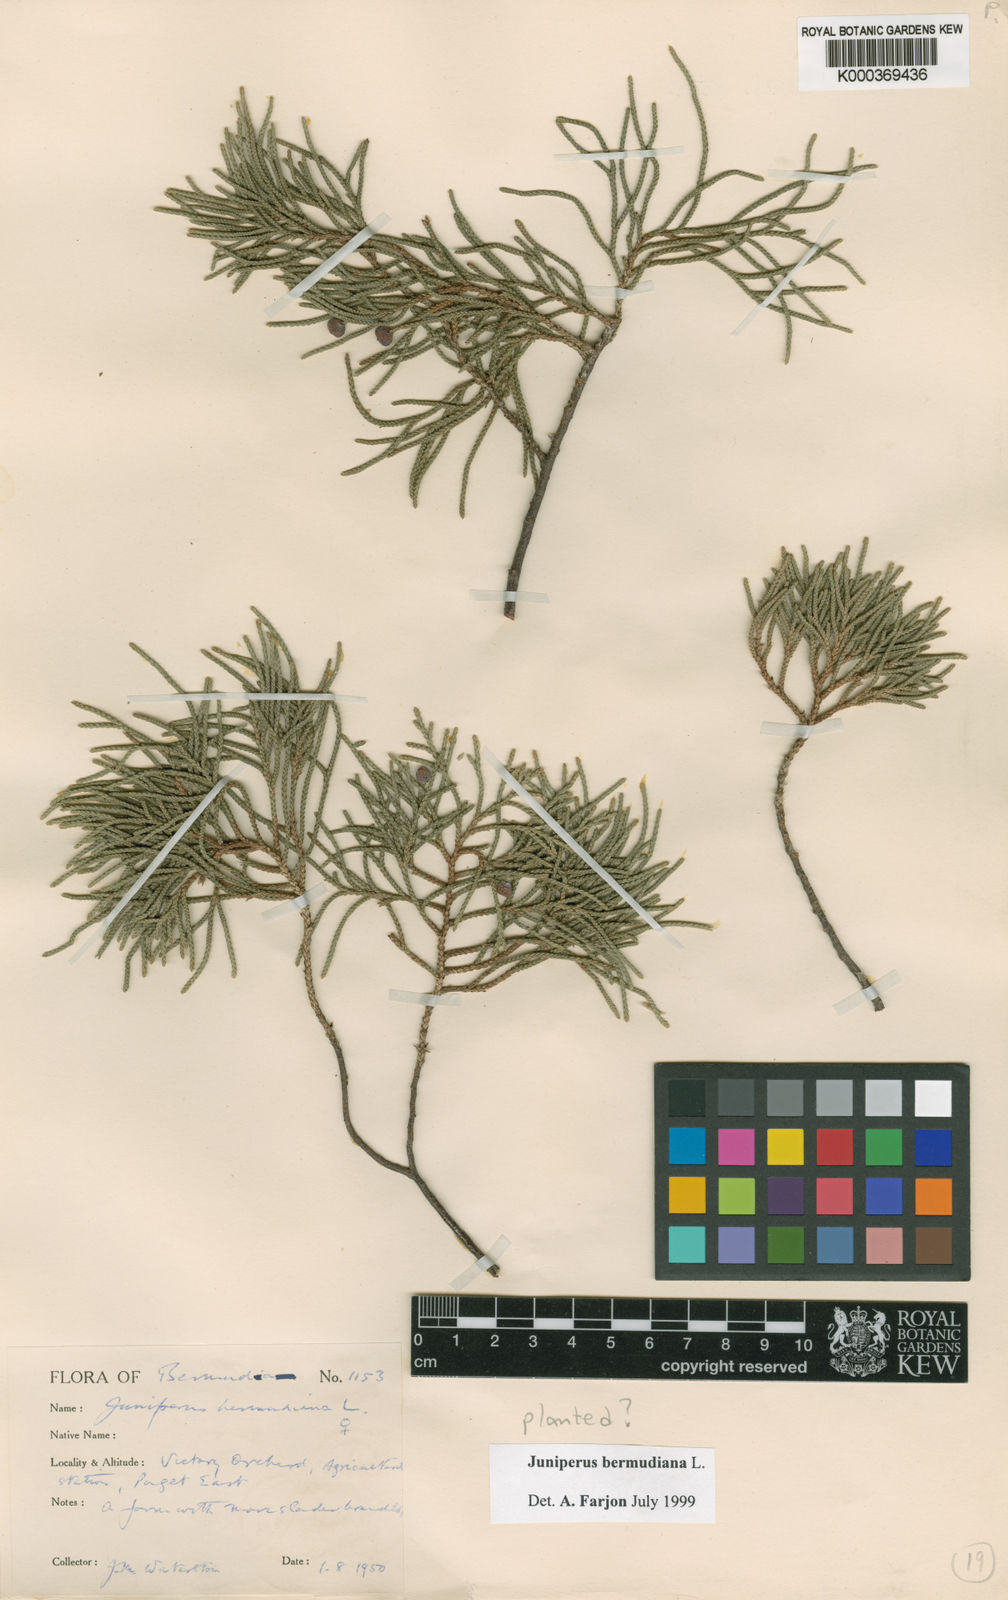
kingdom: Plantae
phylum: Tracheophyta
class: Pinopsida
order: Pinales
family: Cupressaceae
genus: Juniperus
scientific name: Juniperus bermudiana
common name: Bermuda juniper
